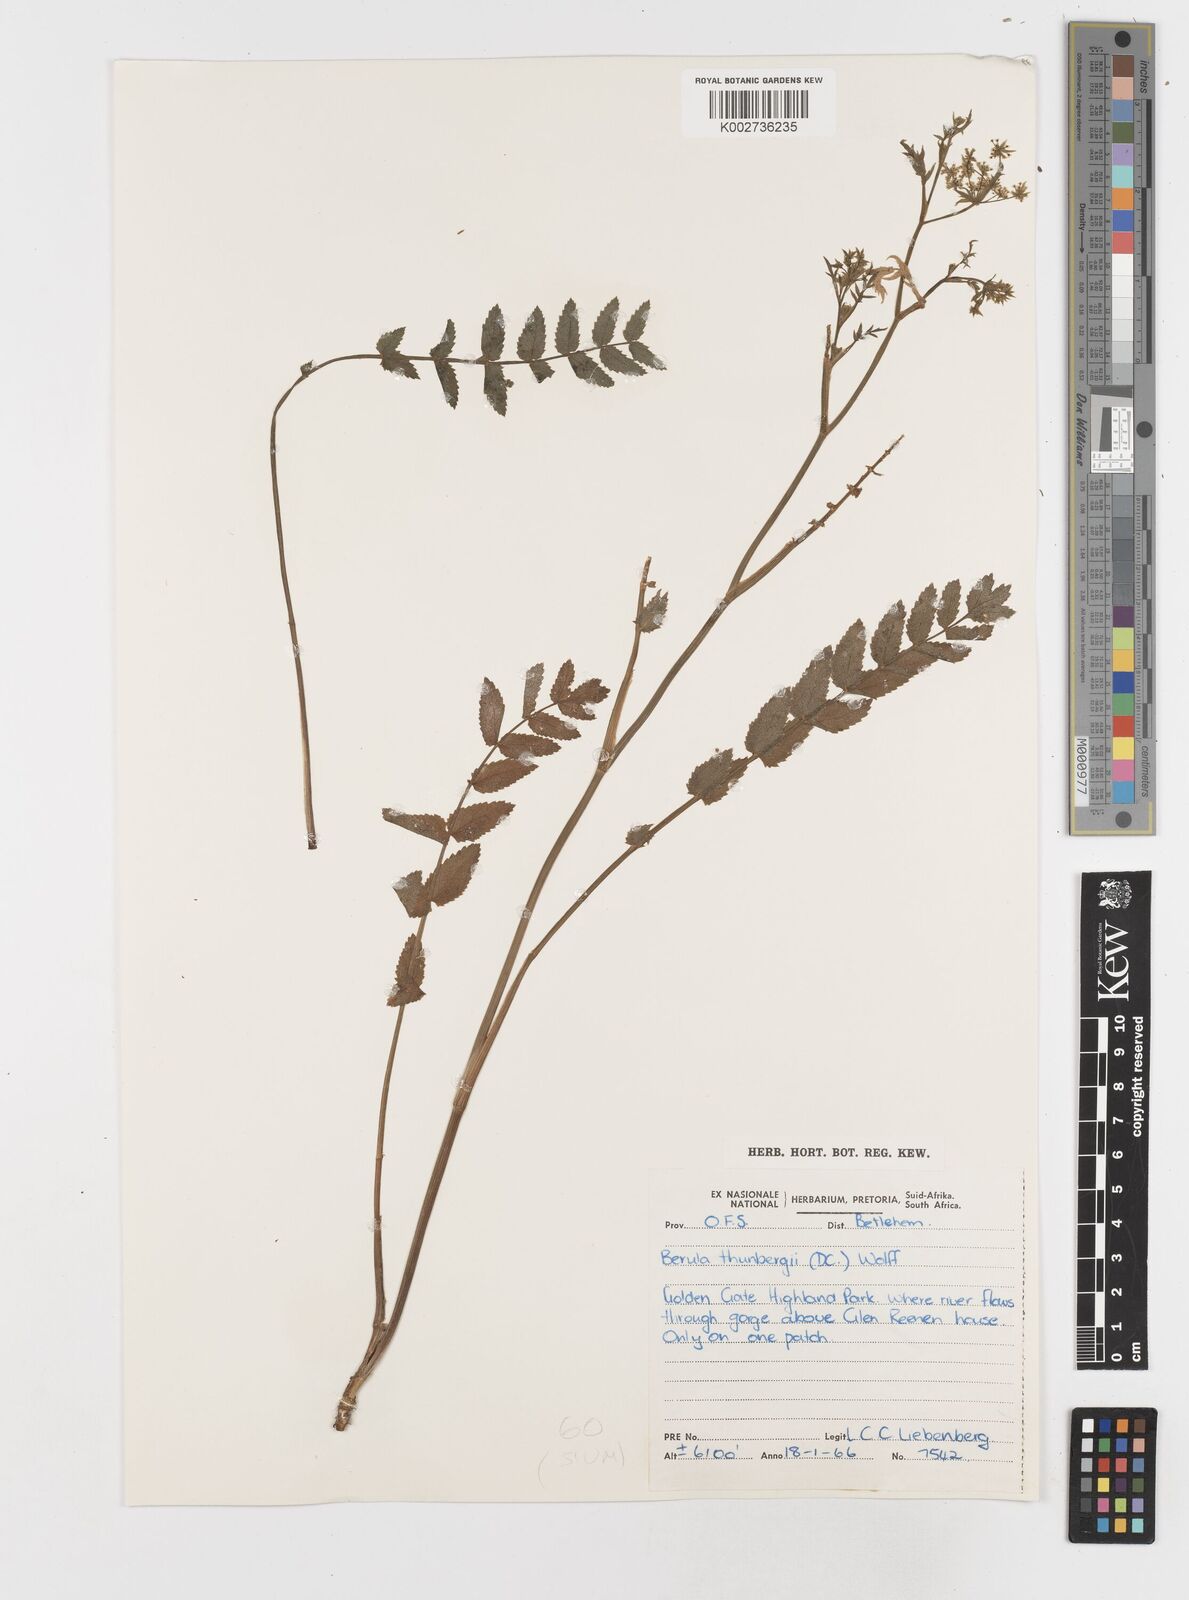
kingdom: Plantae
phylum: Tracheophyta
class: Magnoliopsida
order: Apiales
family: Apiaceae
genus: Berula
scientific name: Berula erecta
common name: Lesser water-parsnip
